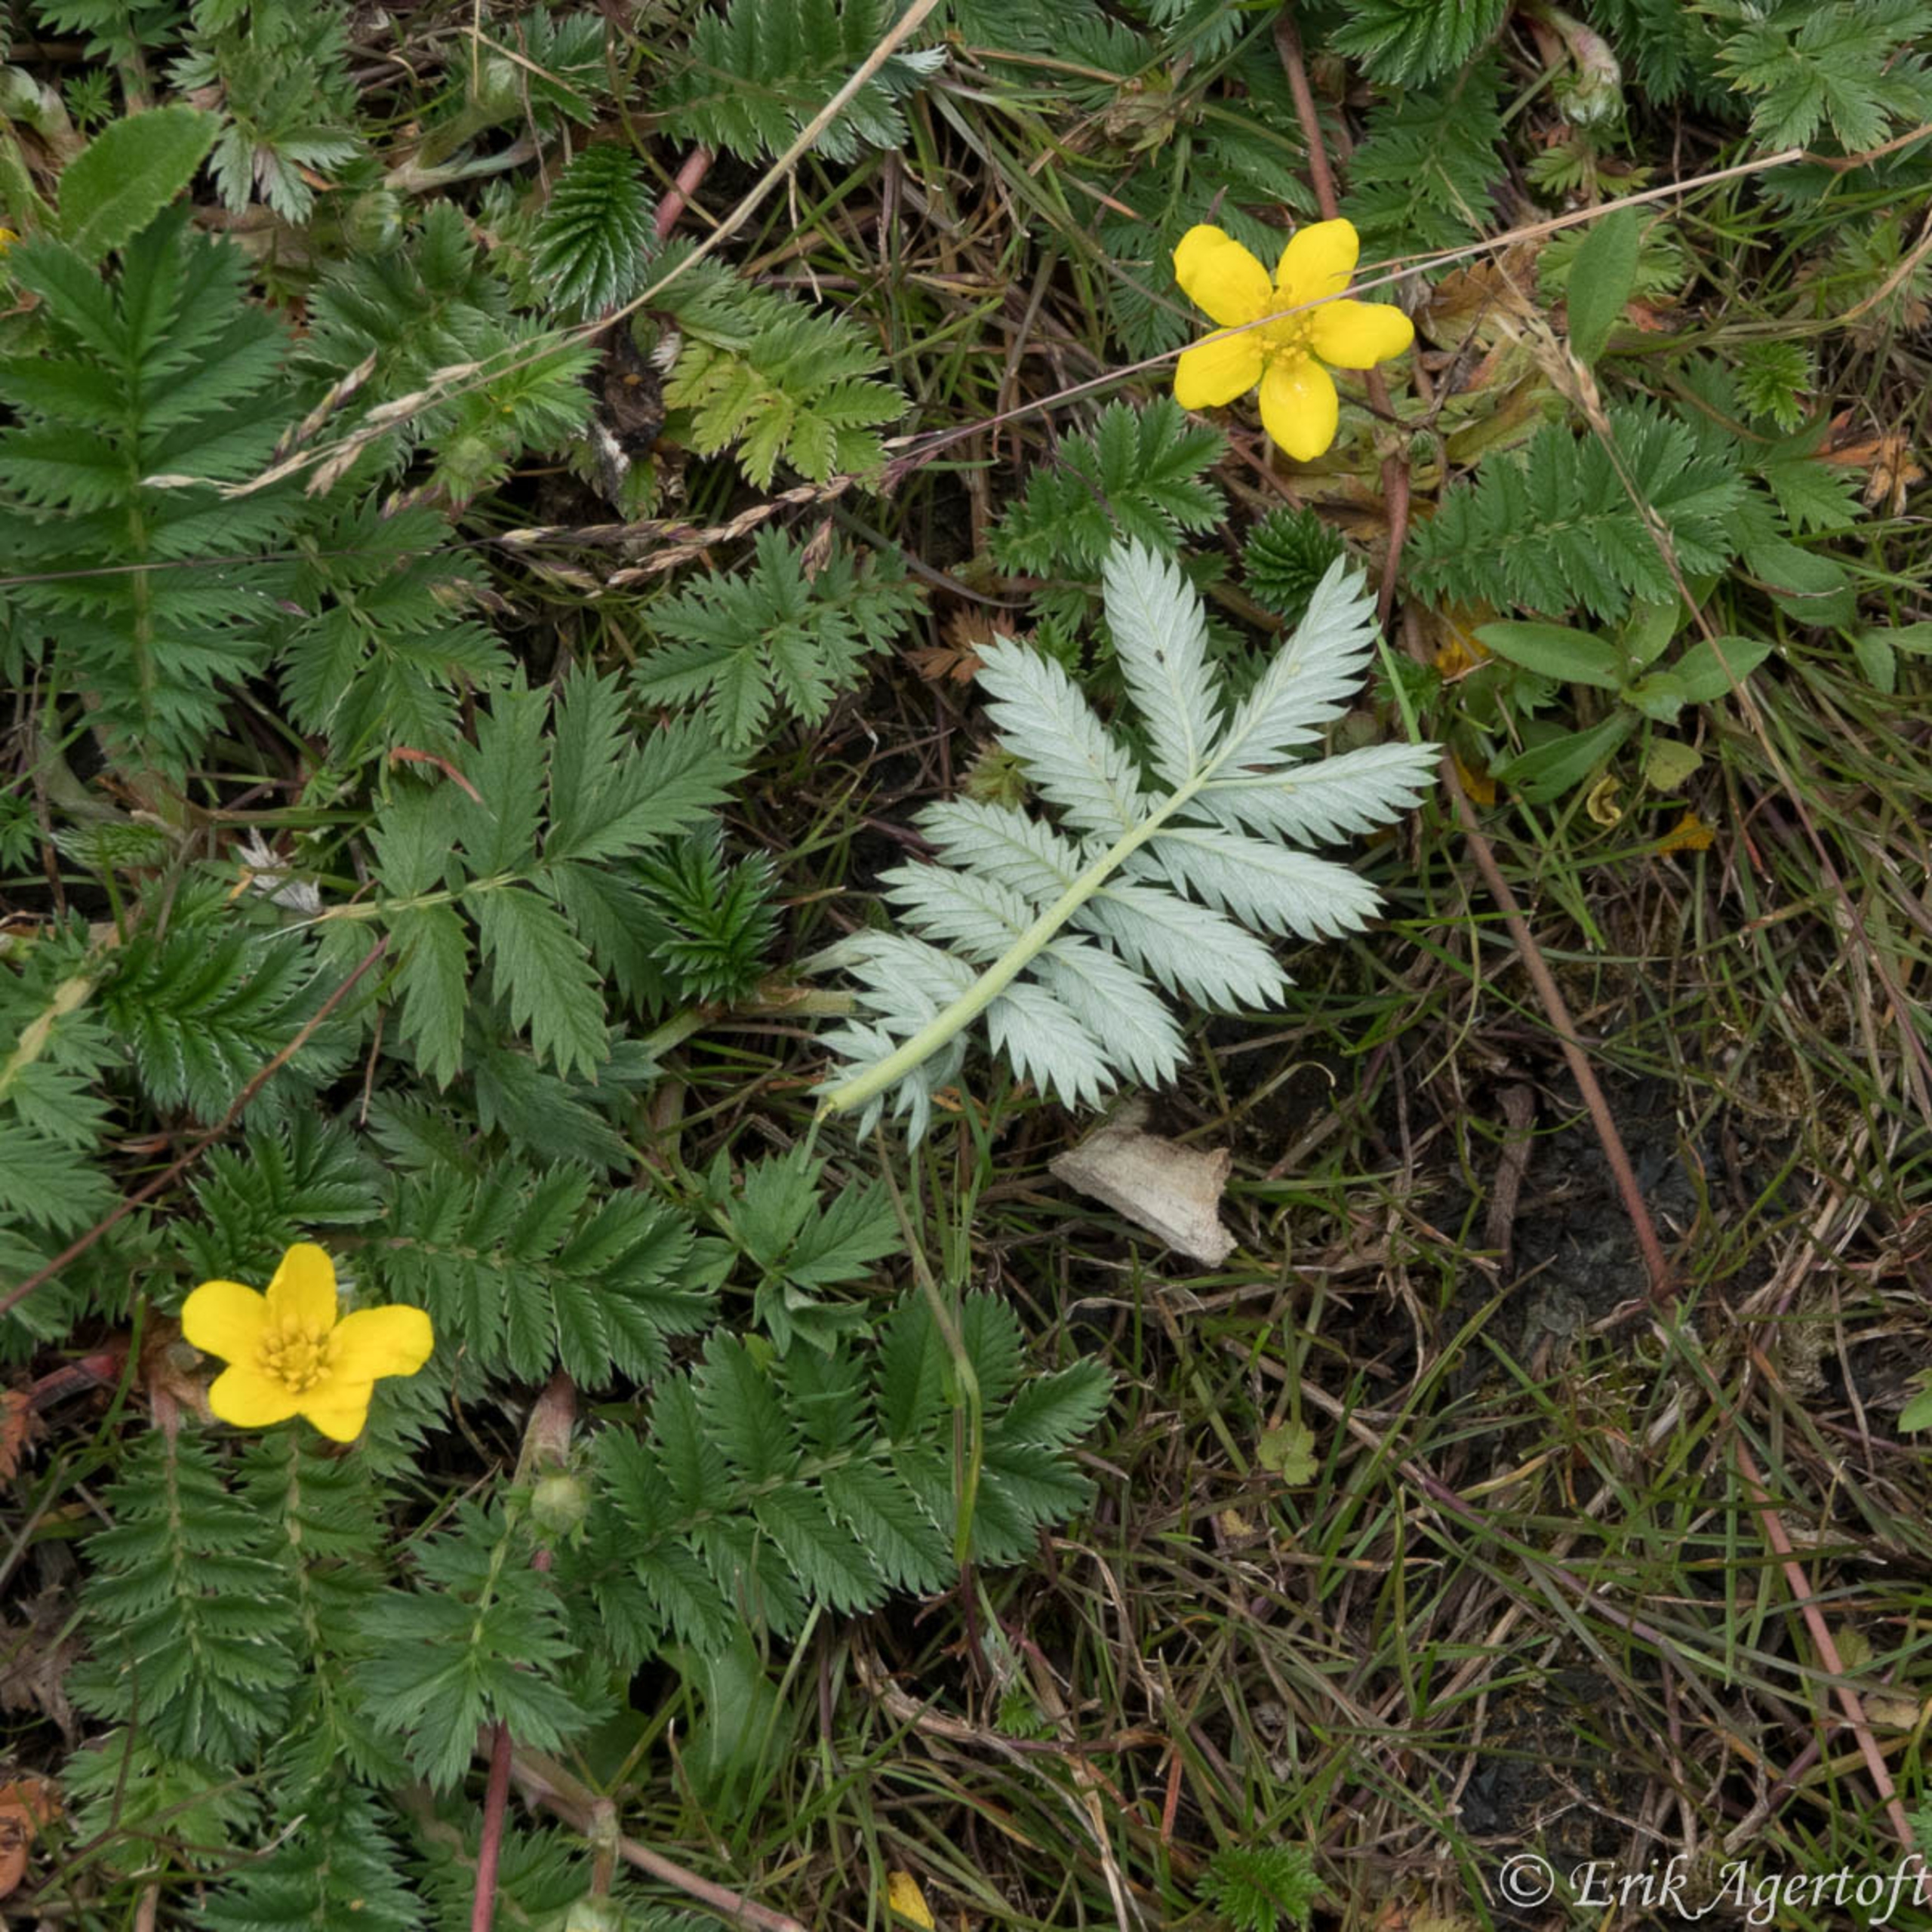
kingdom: Plantae
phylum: Tracheophyta
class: Magnoliopsida
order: Rosales
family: Rosaceae
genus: Argentina
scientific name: Argentina anserina
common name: Gåsepotentil
